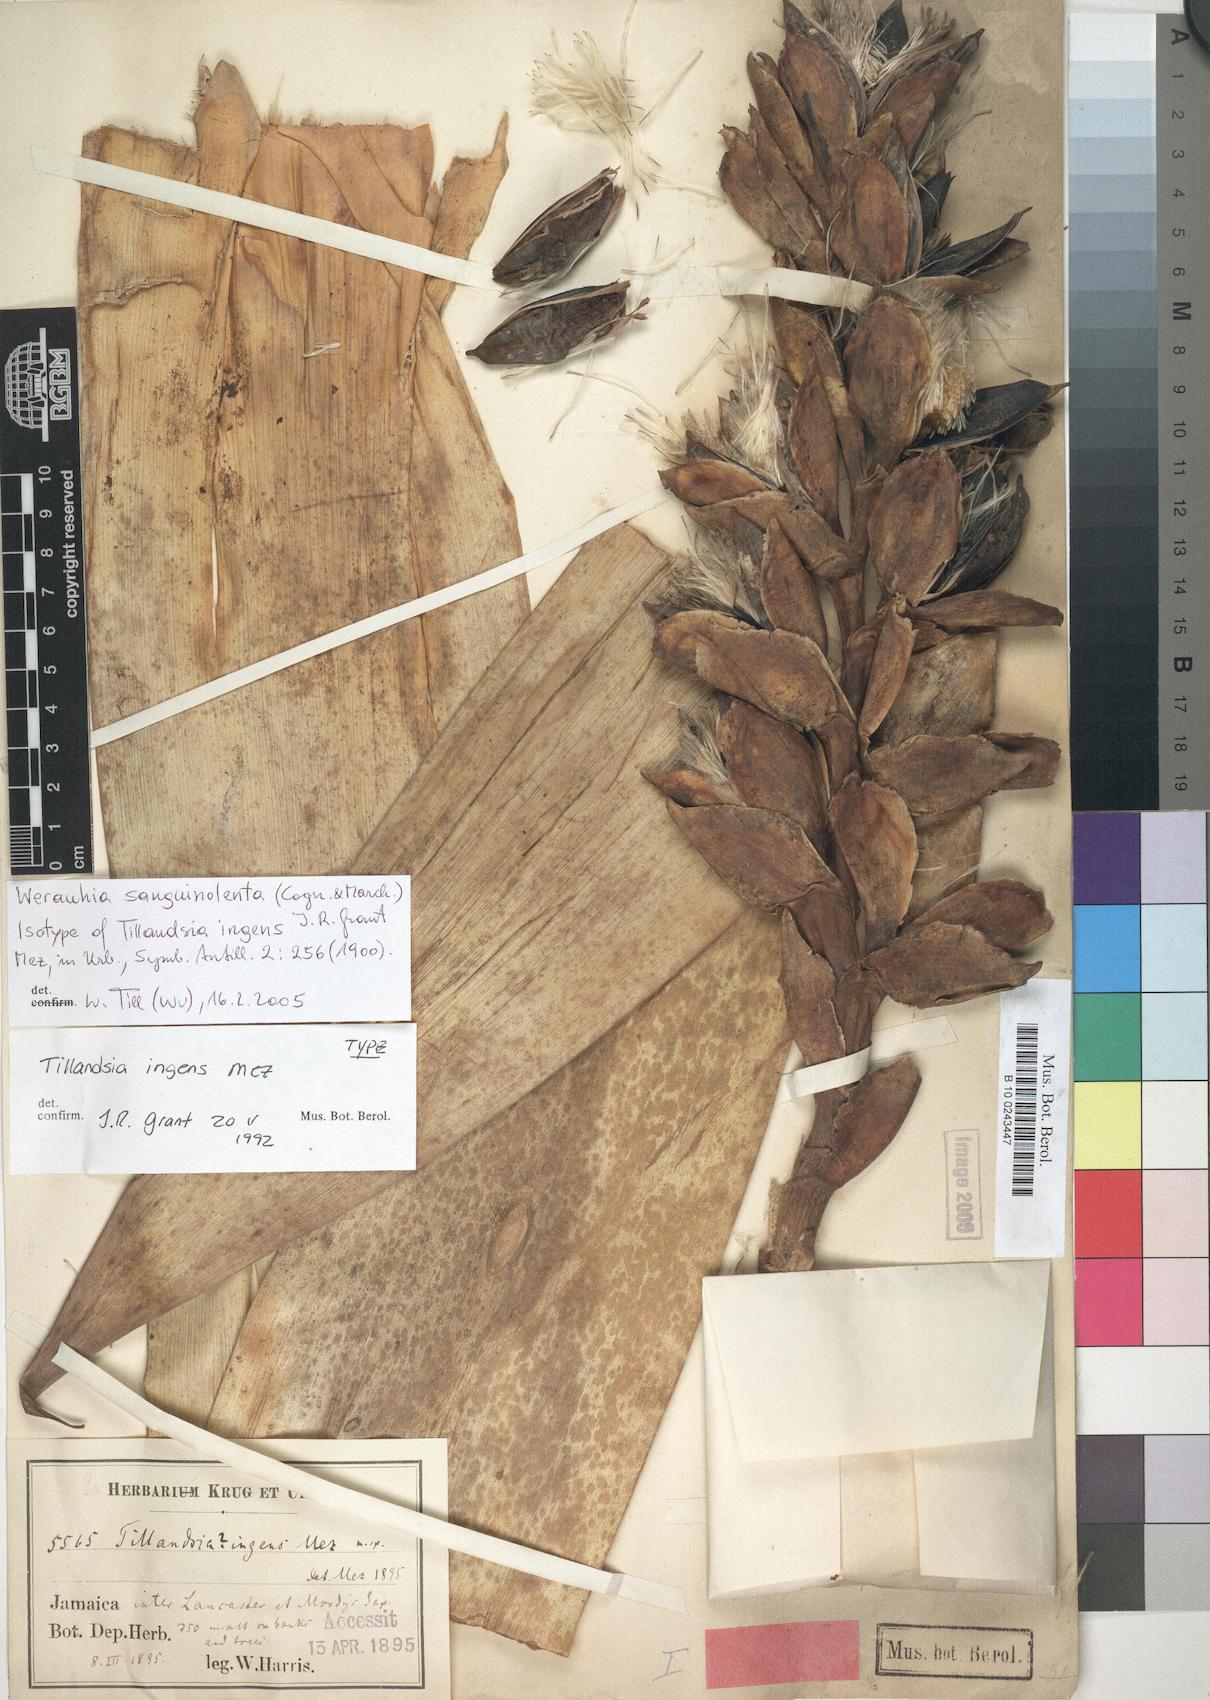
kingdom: Plantae
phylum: Tracheophyta
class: Liliopsida
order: Poales
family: Bromeliaceae
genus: Werauhia
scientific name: Werauhia sanguinolenta
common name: Bromeliad
